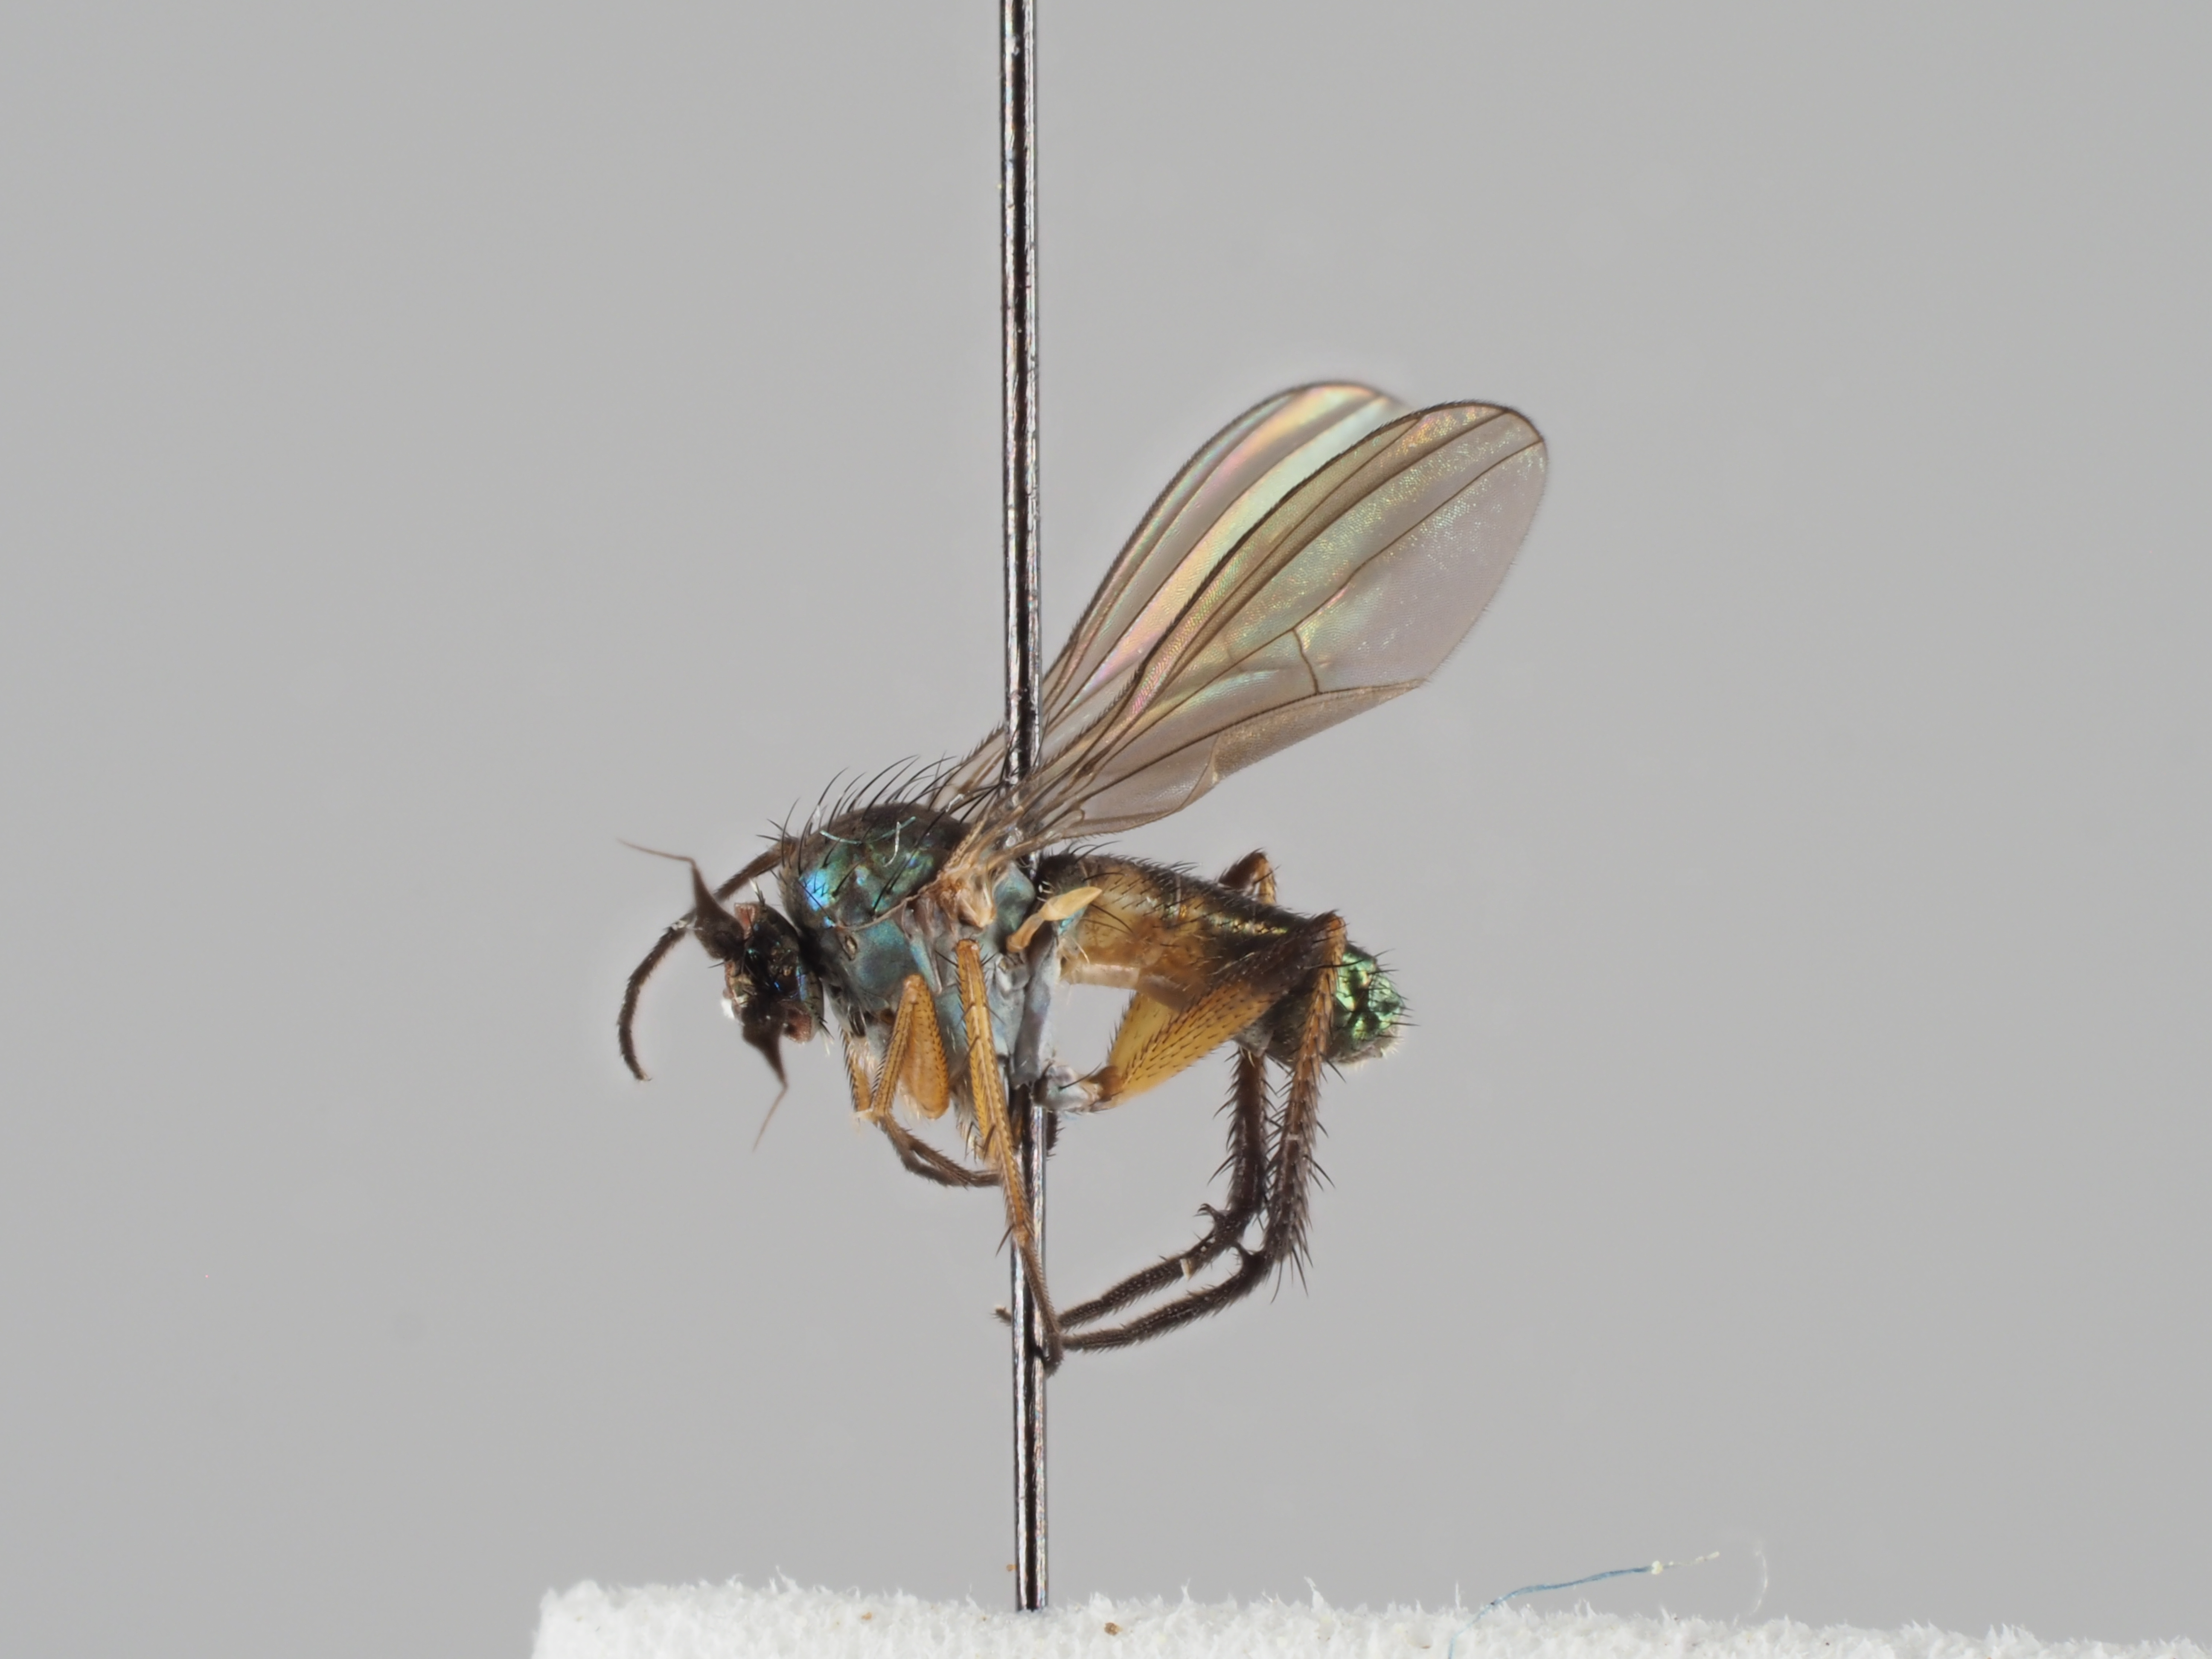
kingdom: Animalia
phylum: Arthropoda
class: Insecta
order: Diptera
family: Dolichopodidae
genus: Syntormon
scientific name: Syntormon pallipes
